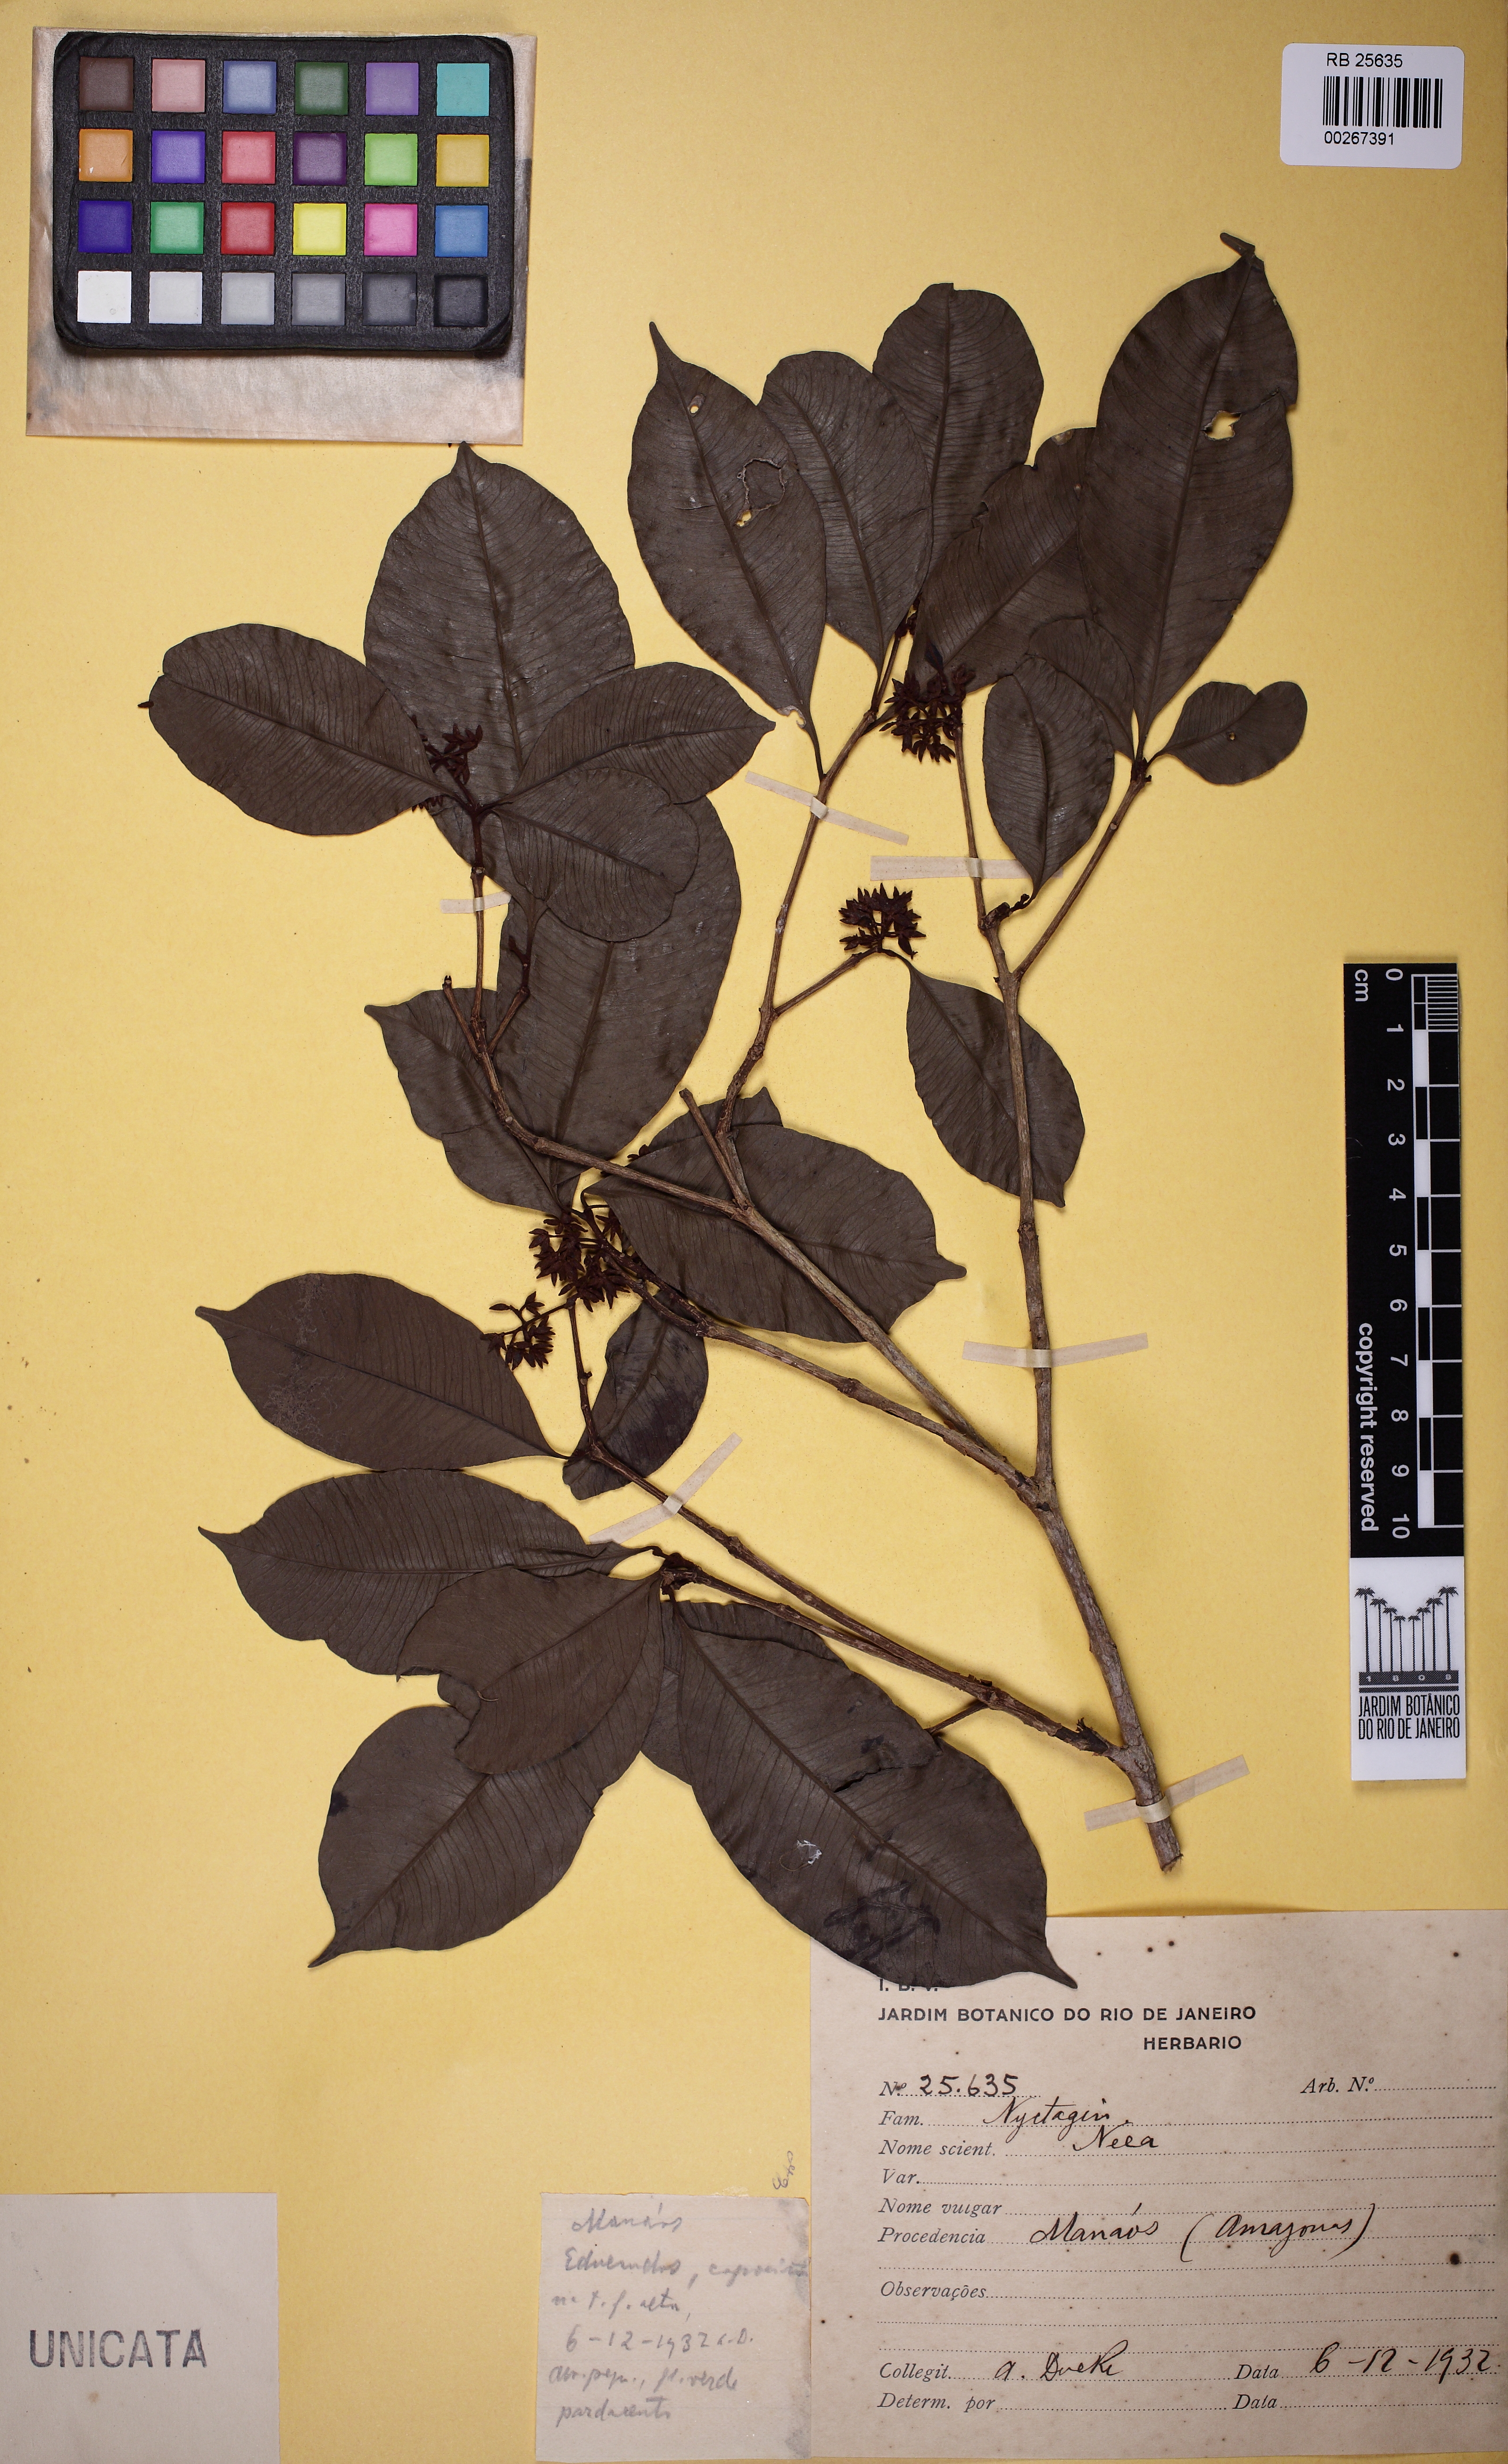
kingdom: Plantae
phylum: Tracheophyta
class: Magnoliopsida
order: Caryophyllales
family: Nyctaginaceae
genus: Neea
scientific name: Neea ovalifolia
